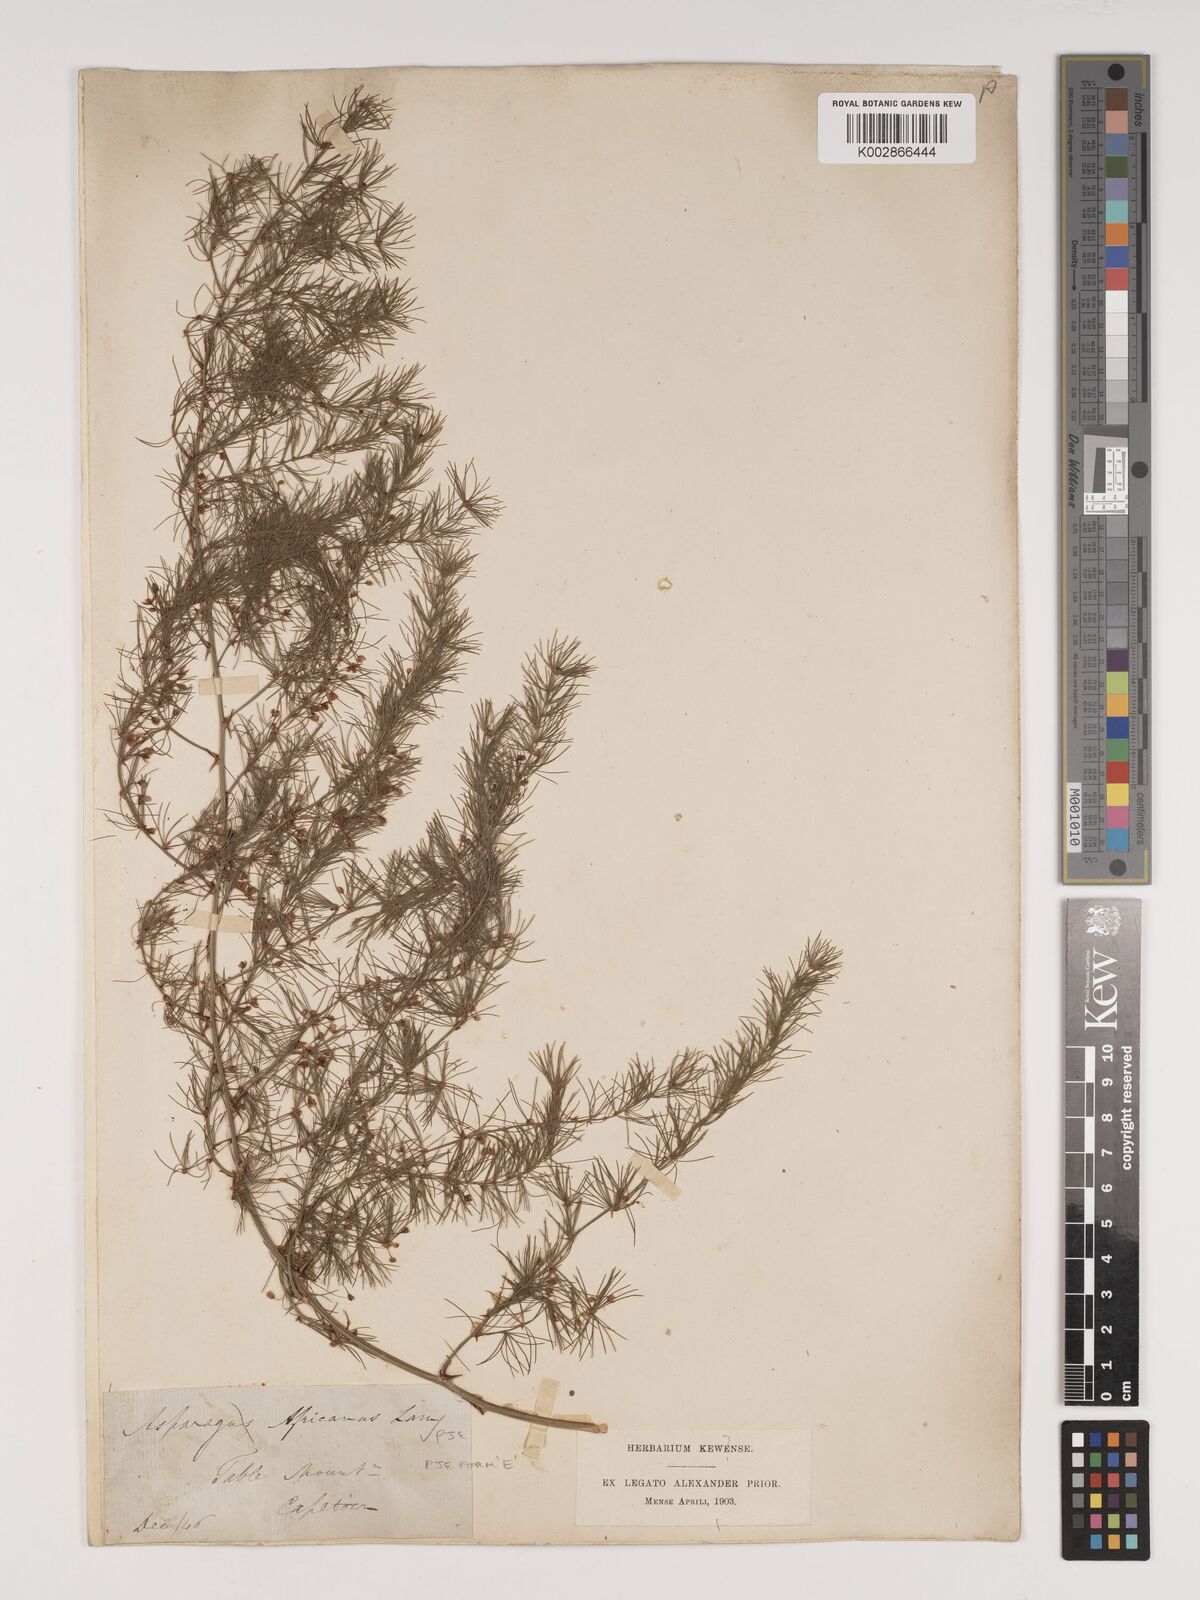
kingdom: Plantae
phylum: Tracheophyta
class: Liliopsida
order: Asparagales
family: Asparagaceae
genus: Asparagus
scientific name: Asparagus africanus
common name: Asparagus-fern
